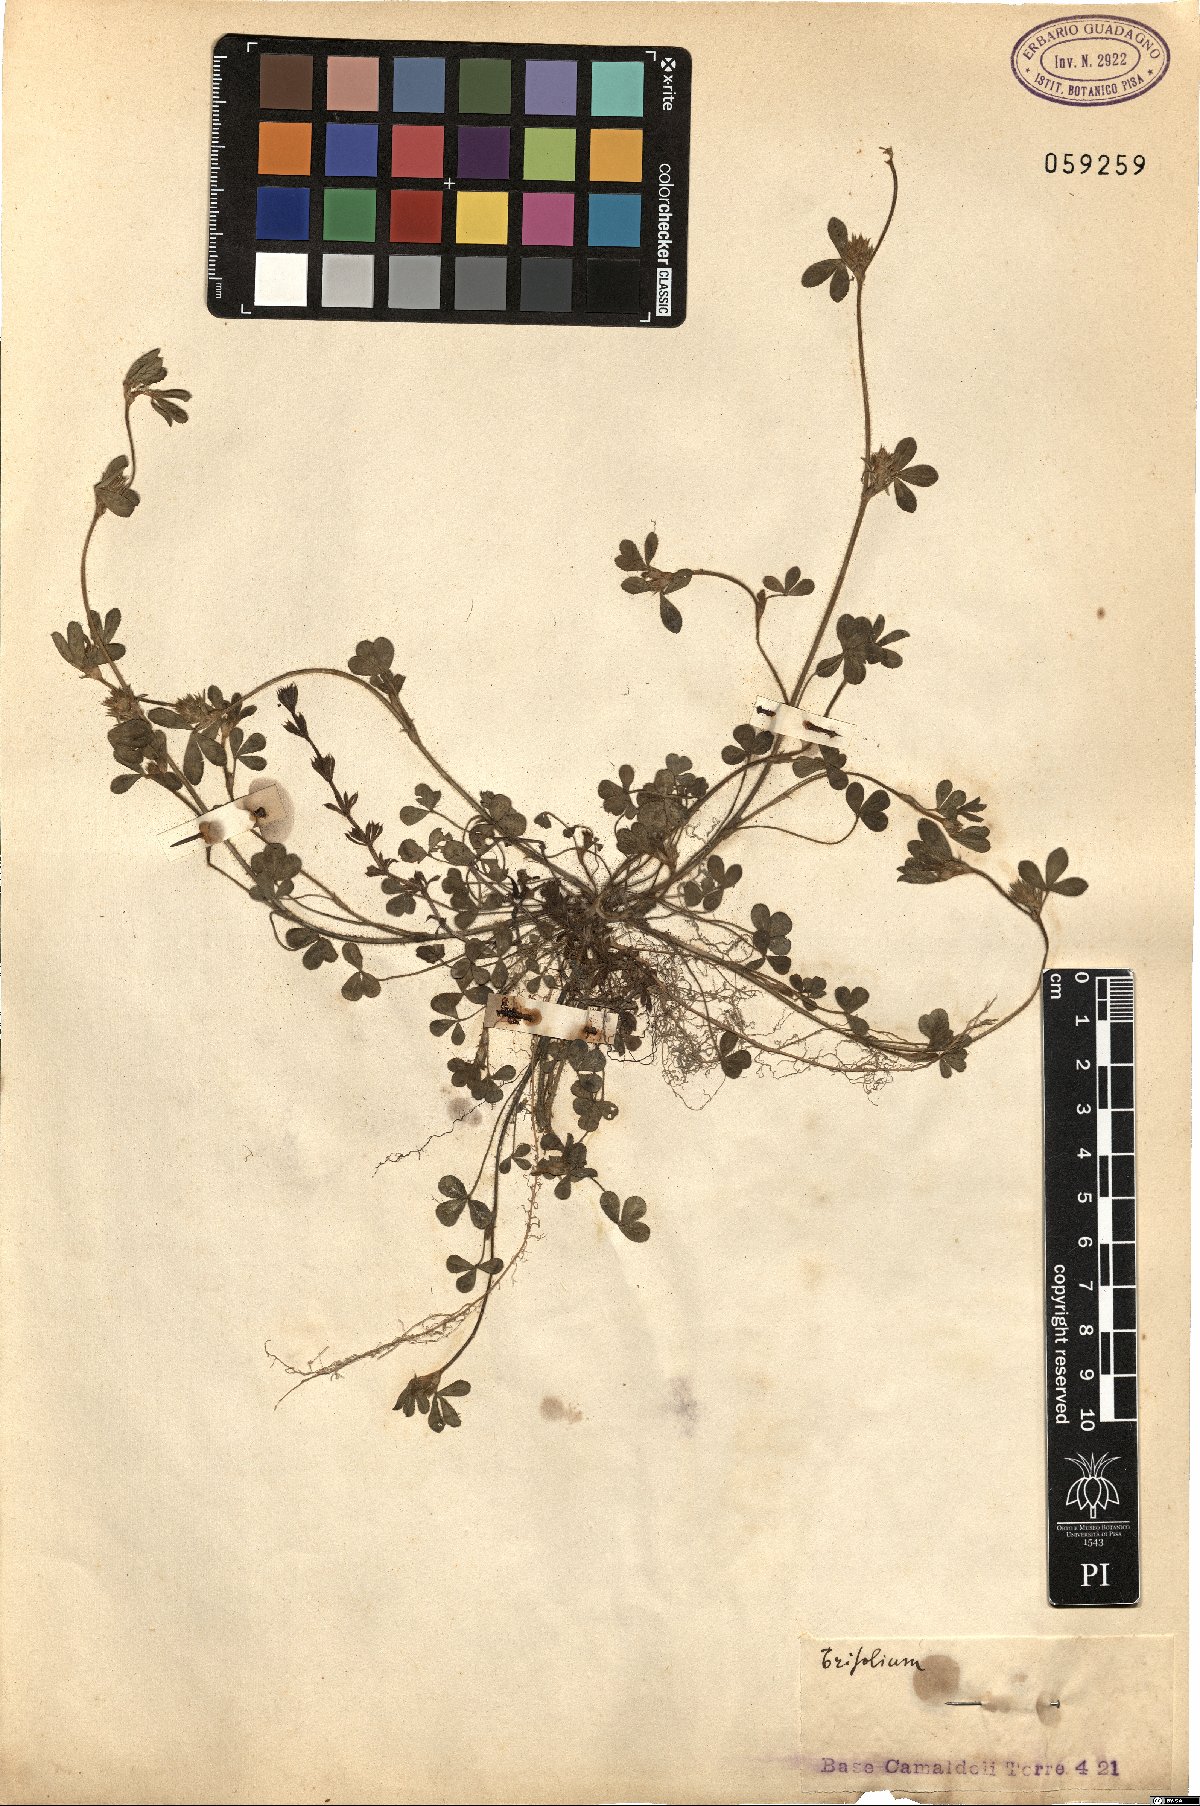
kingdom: Plantae
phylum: Tracheophyta
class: Magnoliopsida
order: Fabales
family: Fabaceae
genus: Trifolium
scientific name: Trifolium
